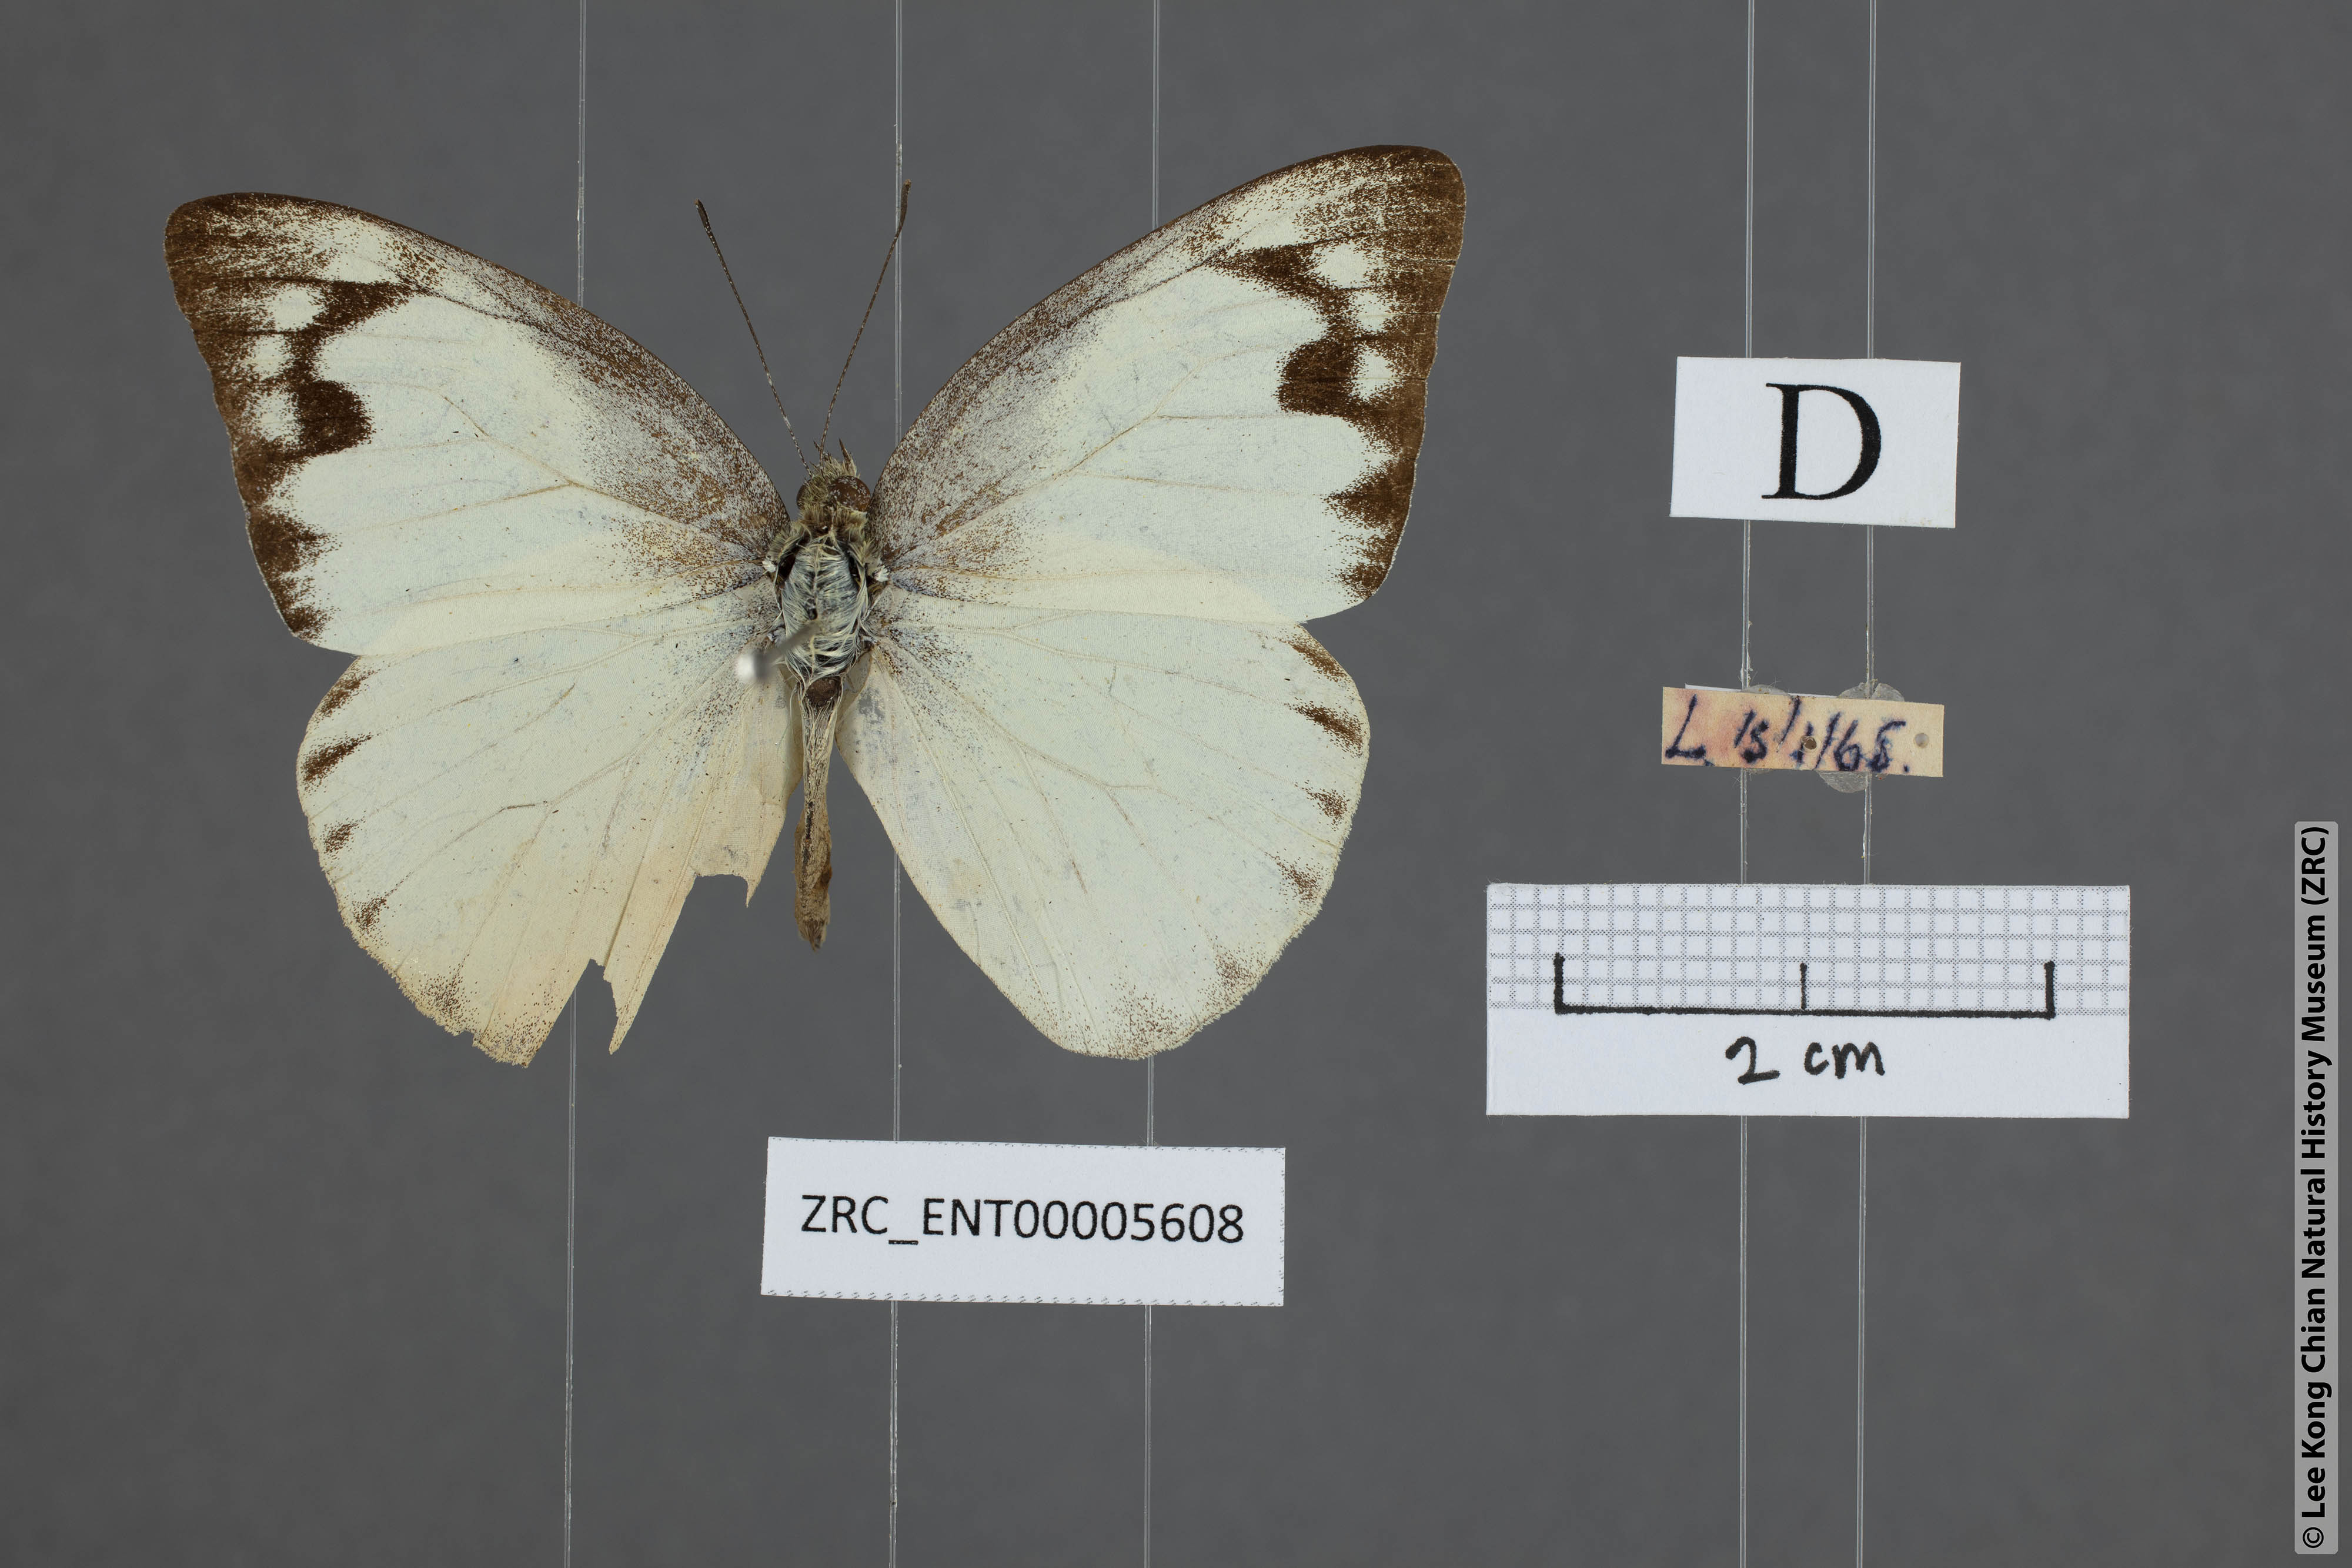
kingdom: Animalia
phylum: Arthropoda
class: Insecta
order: Lepidoptera
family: Pieridae
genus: Appias
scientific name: Appias paulina
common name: Ceylon lesser albatross
